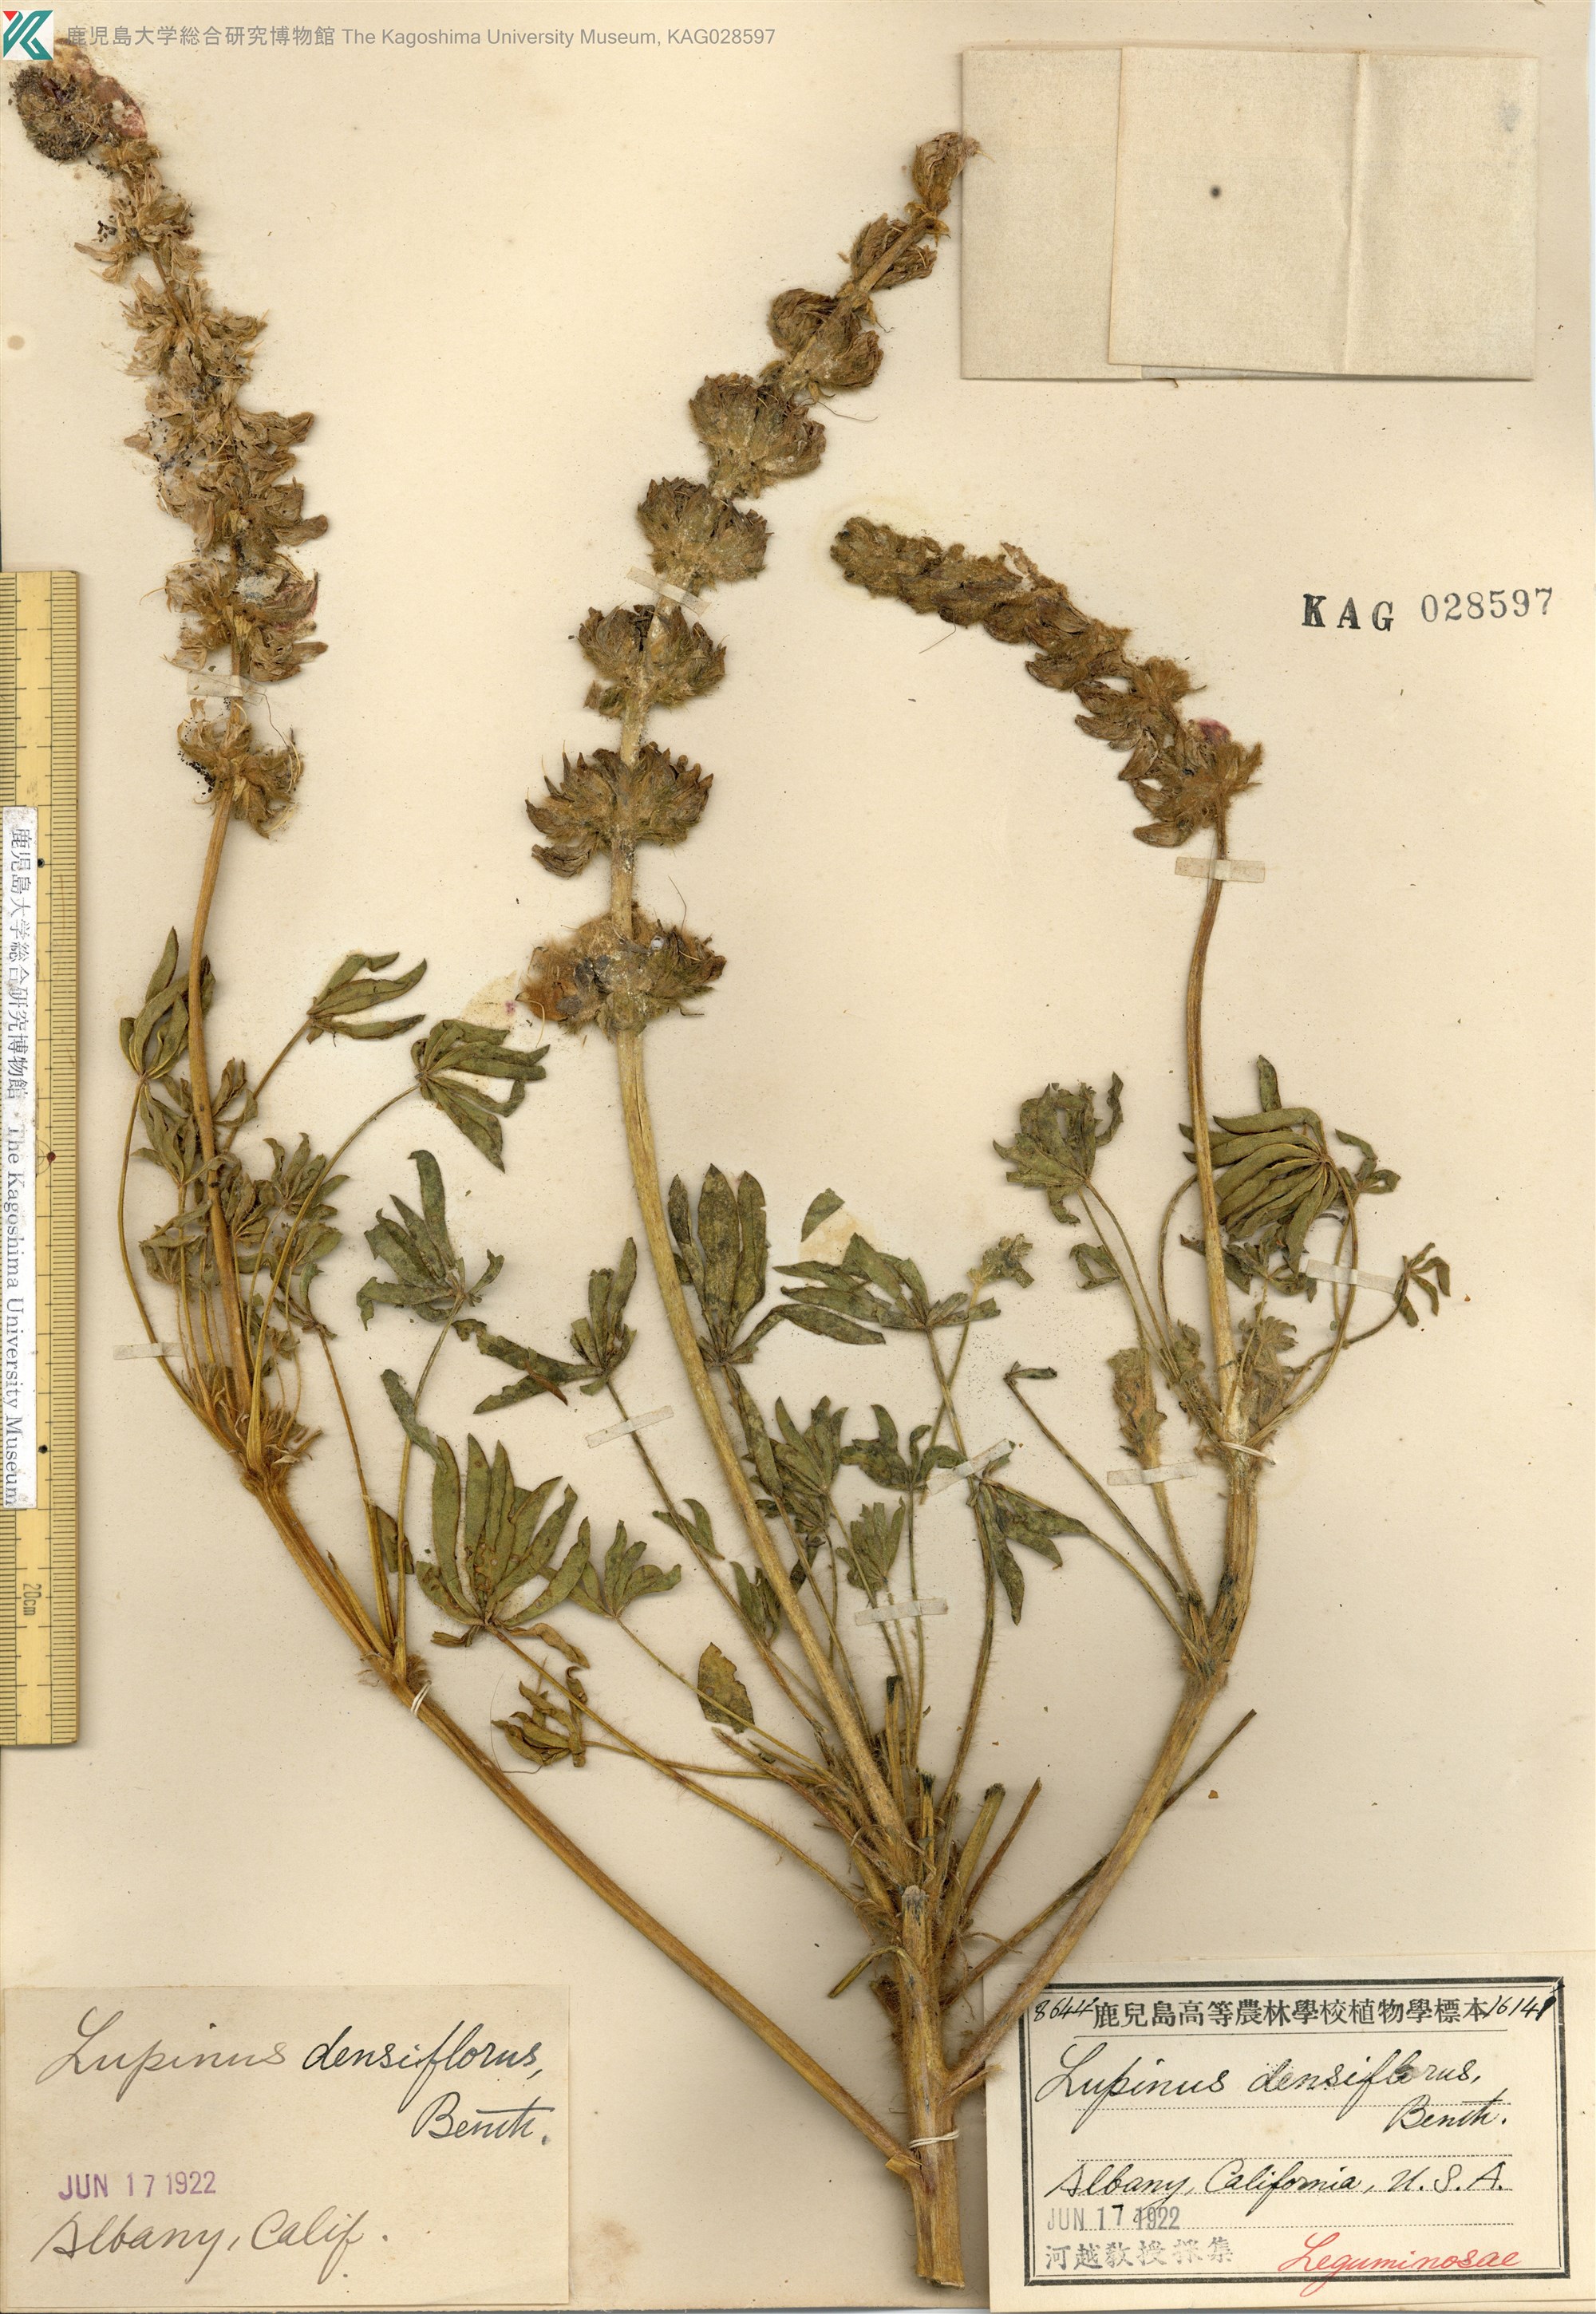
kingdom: Plantae
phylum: Tracheophyta
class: Magnoliopsida
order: Fabales
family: Fabaceae
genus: Lupinus
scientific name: Lupinus densiflorus
